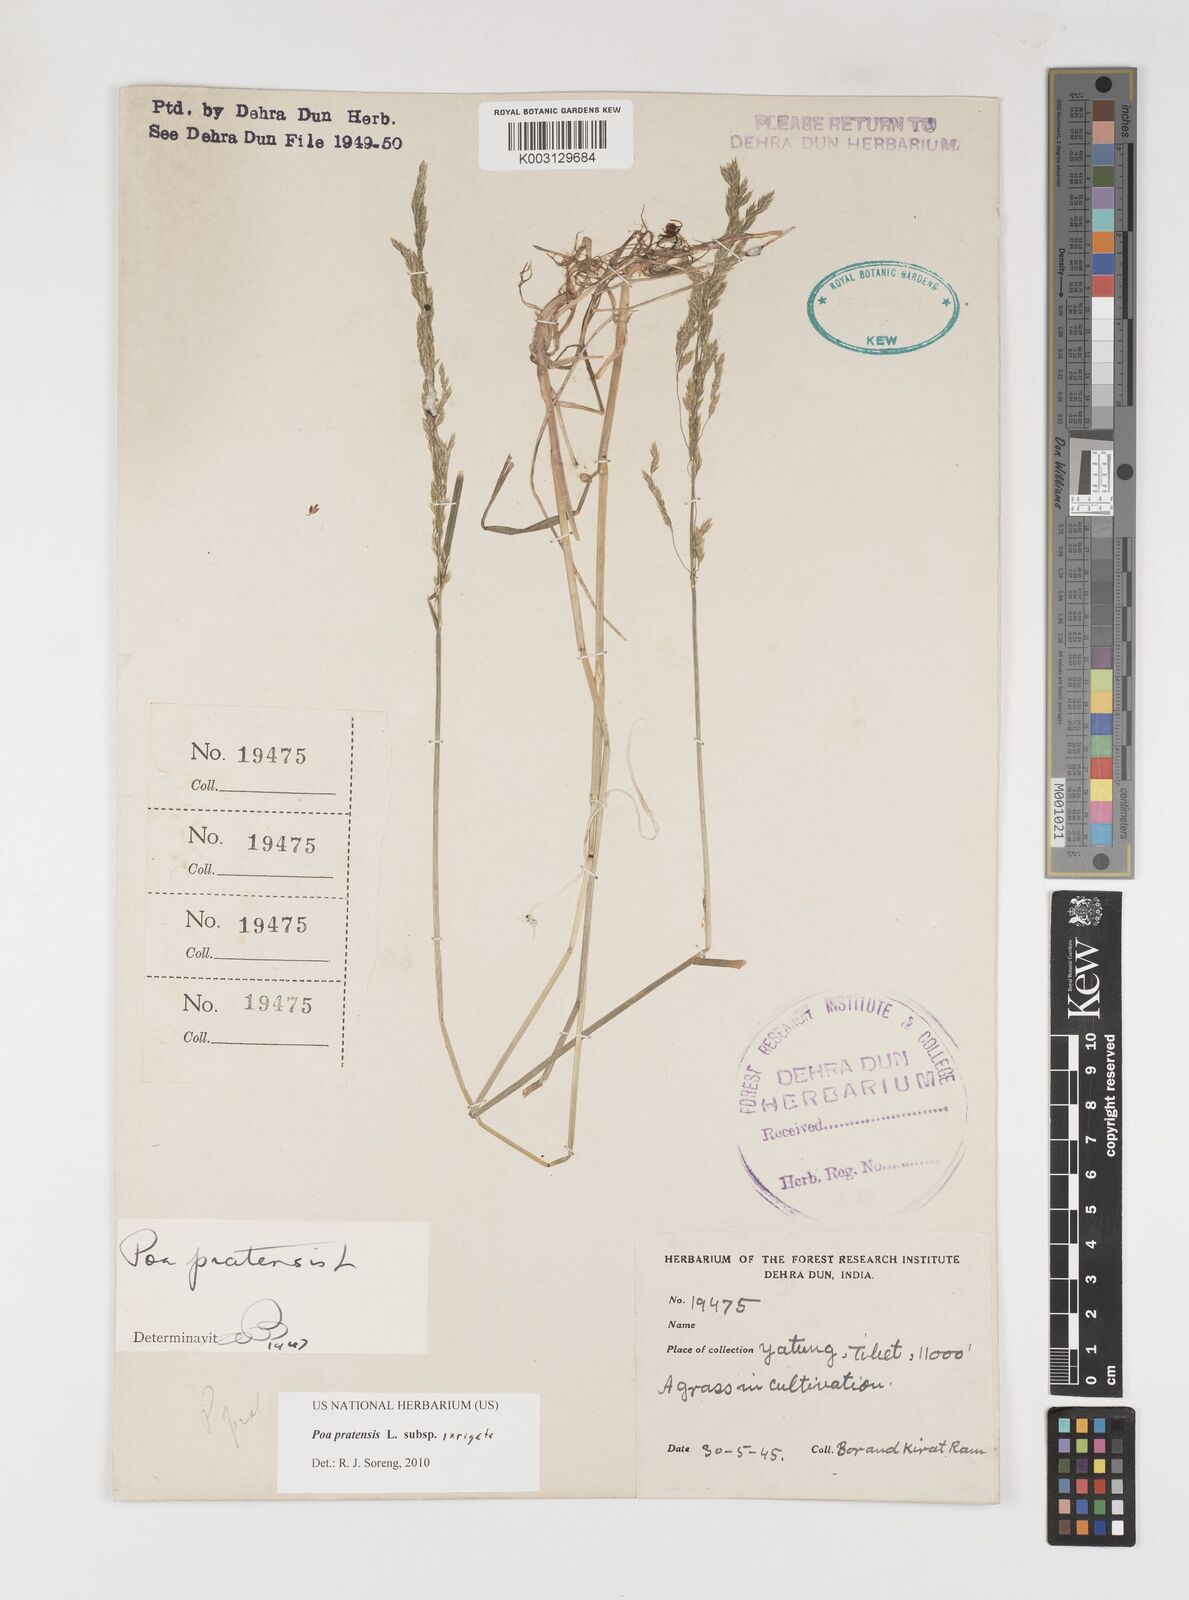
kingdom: Plantae
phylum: Tracheophyta
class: Liliopsida
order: Poales
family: Poaceae
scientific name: Poaceae
